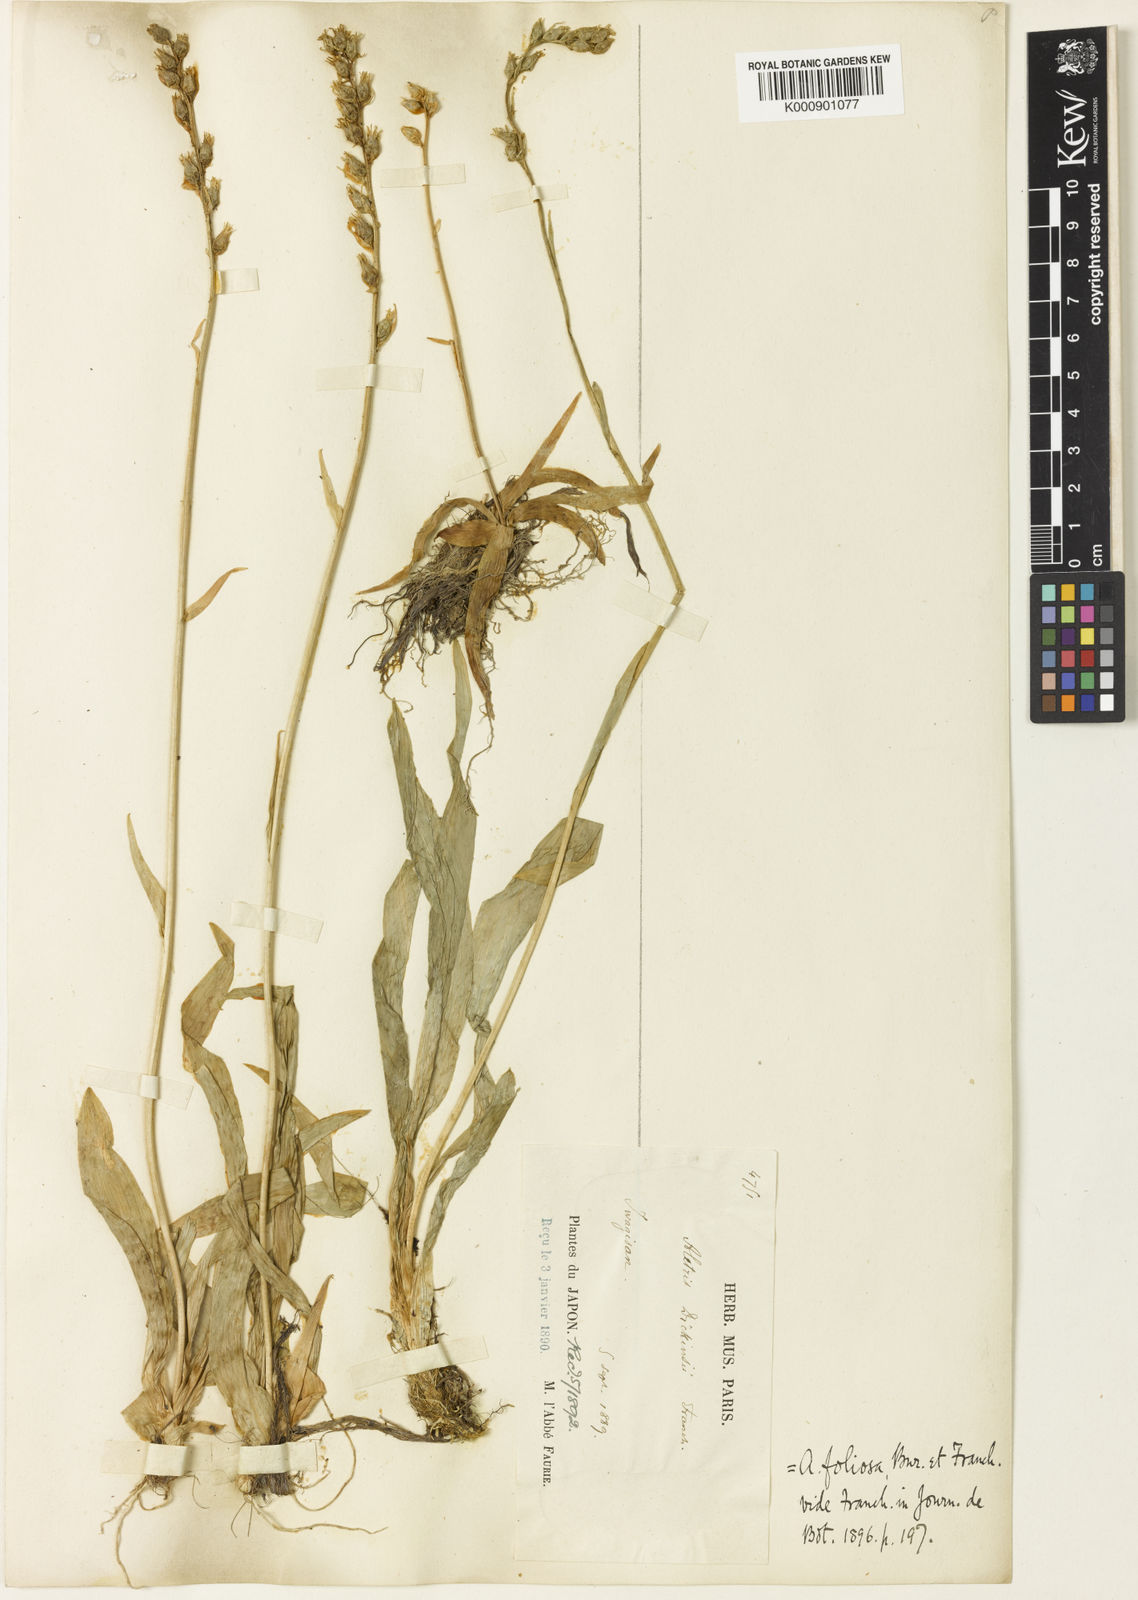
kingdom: Plantae
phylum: Tracheophyta
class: Liliopsida
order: Dioscoreales
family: Nartheciaceae
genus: Aletris
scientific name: Aletris foliata
